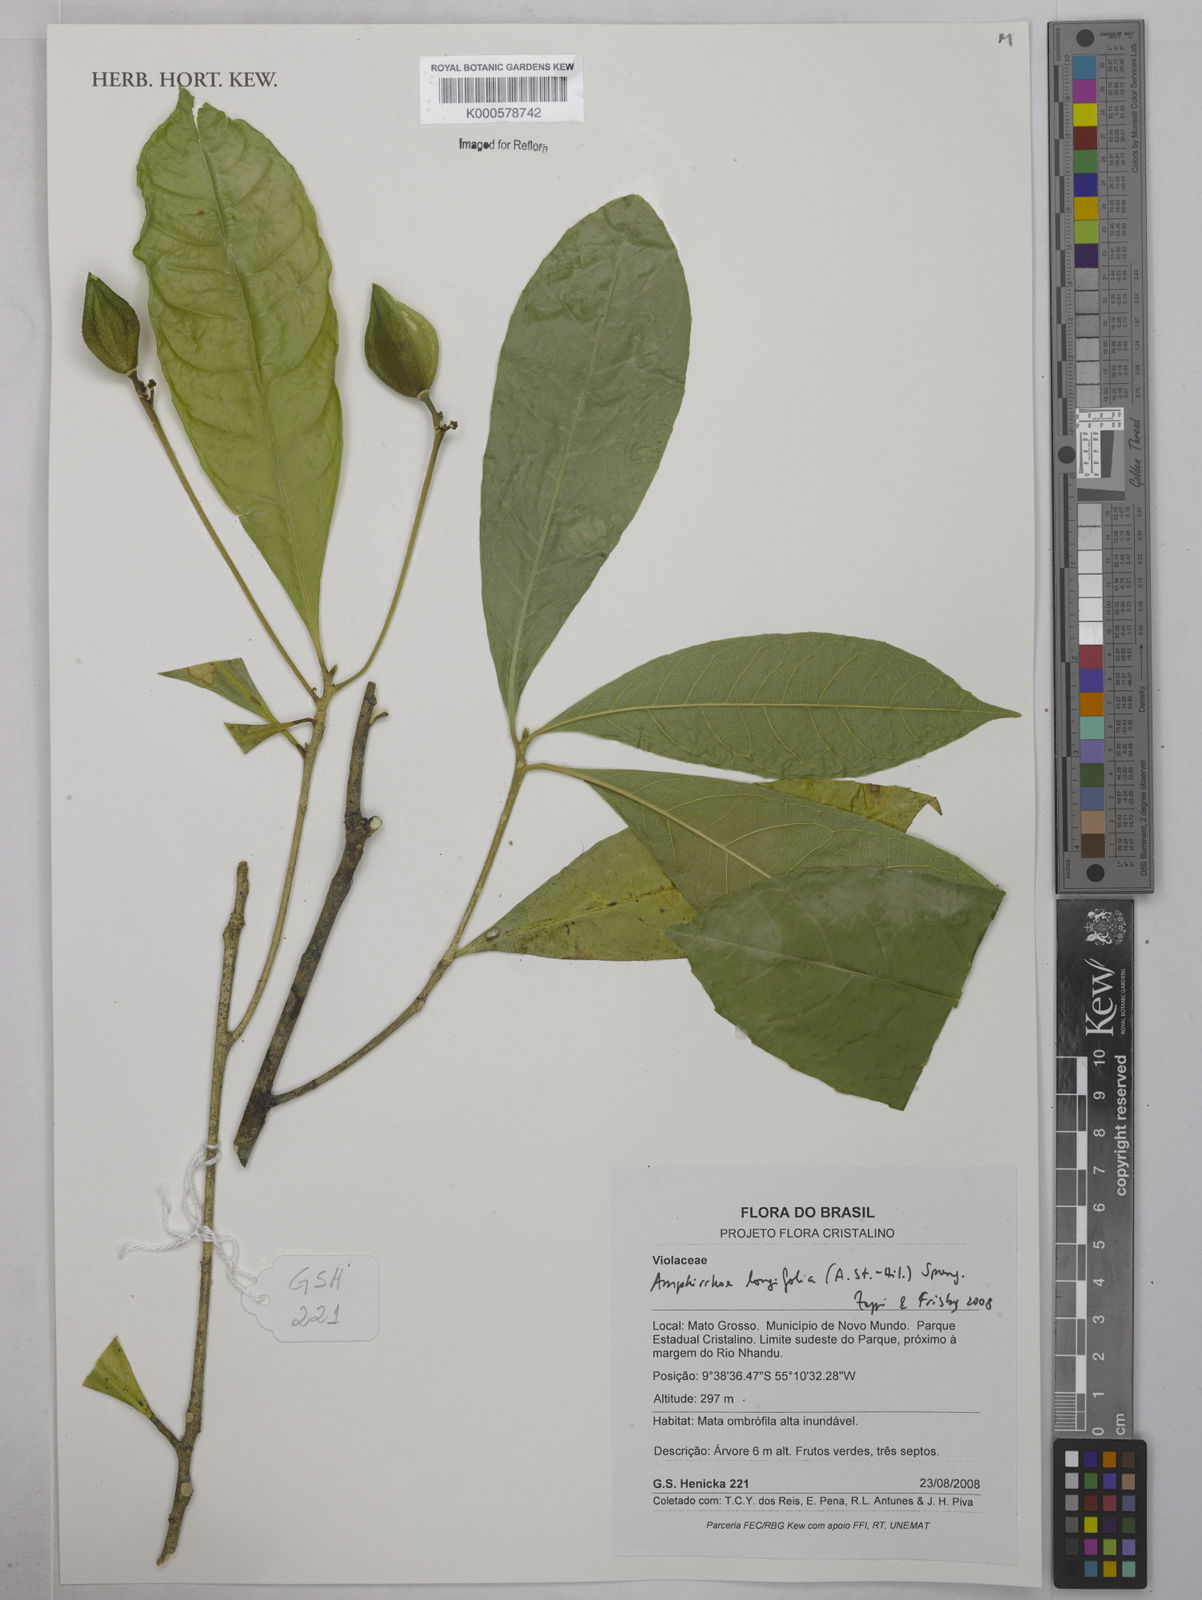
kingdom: Plantae
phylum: Tracheophyta
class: Magnoliopsida
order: Malpighiales
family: Violaceae
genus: Amphirrhox
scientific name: Amphirrhox longifolia
